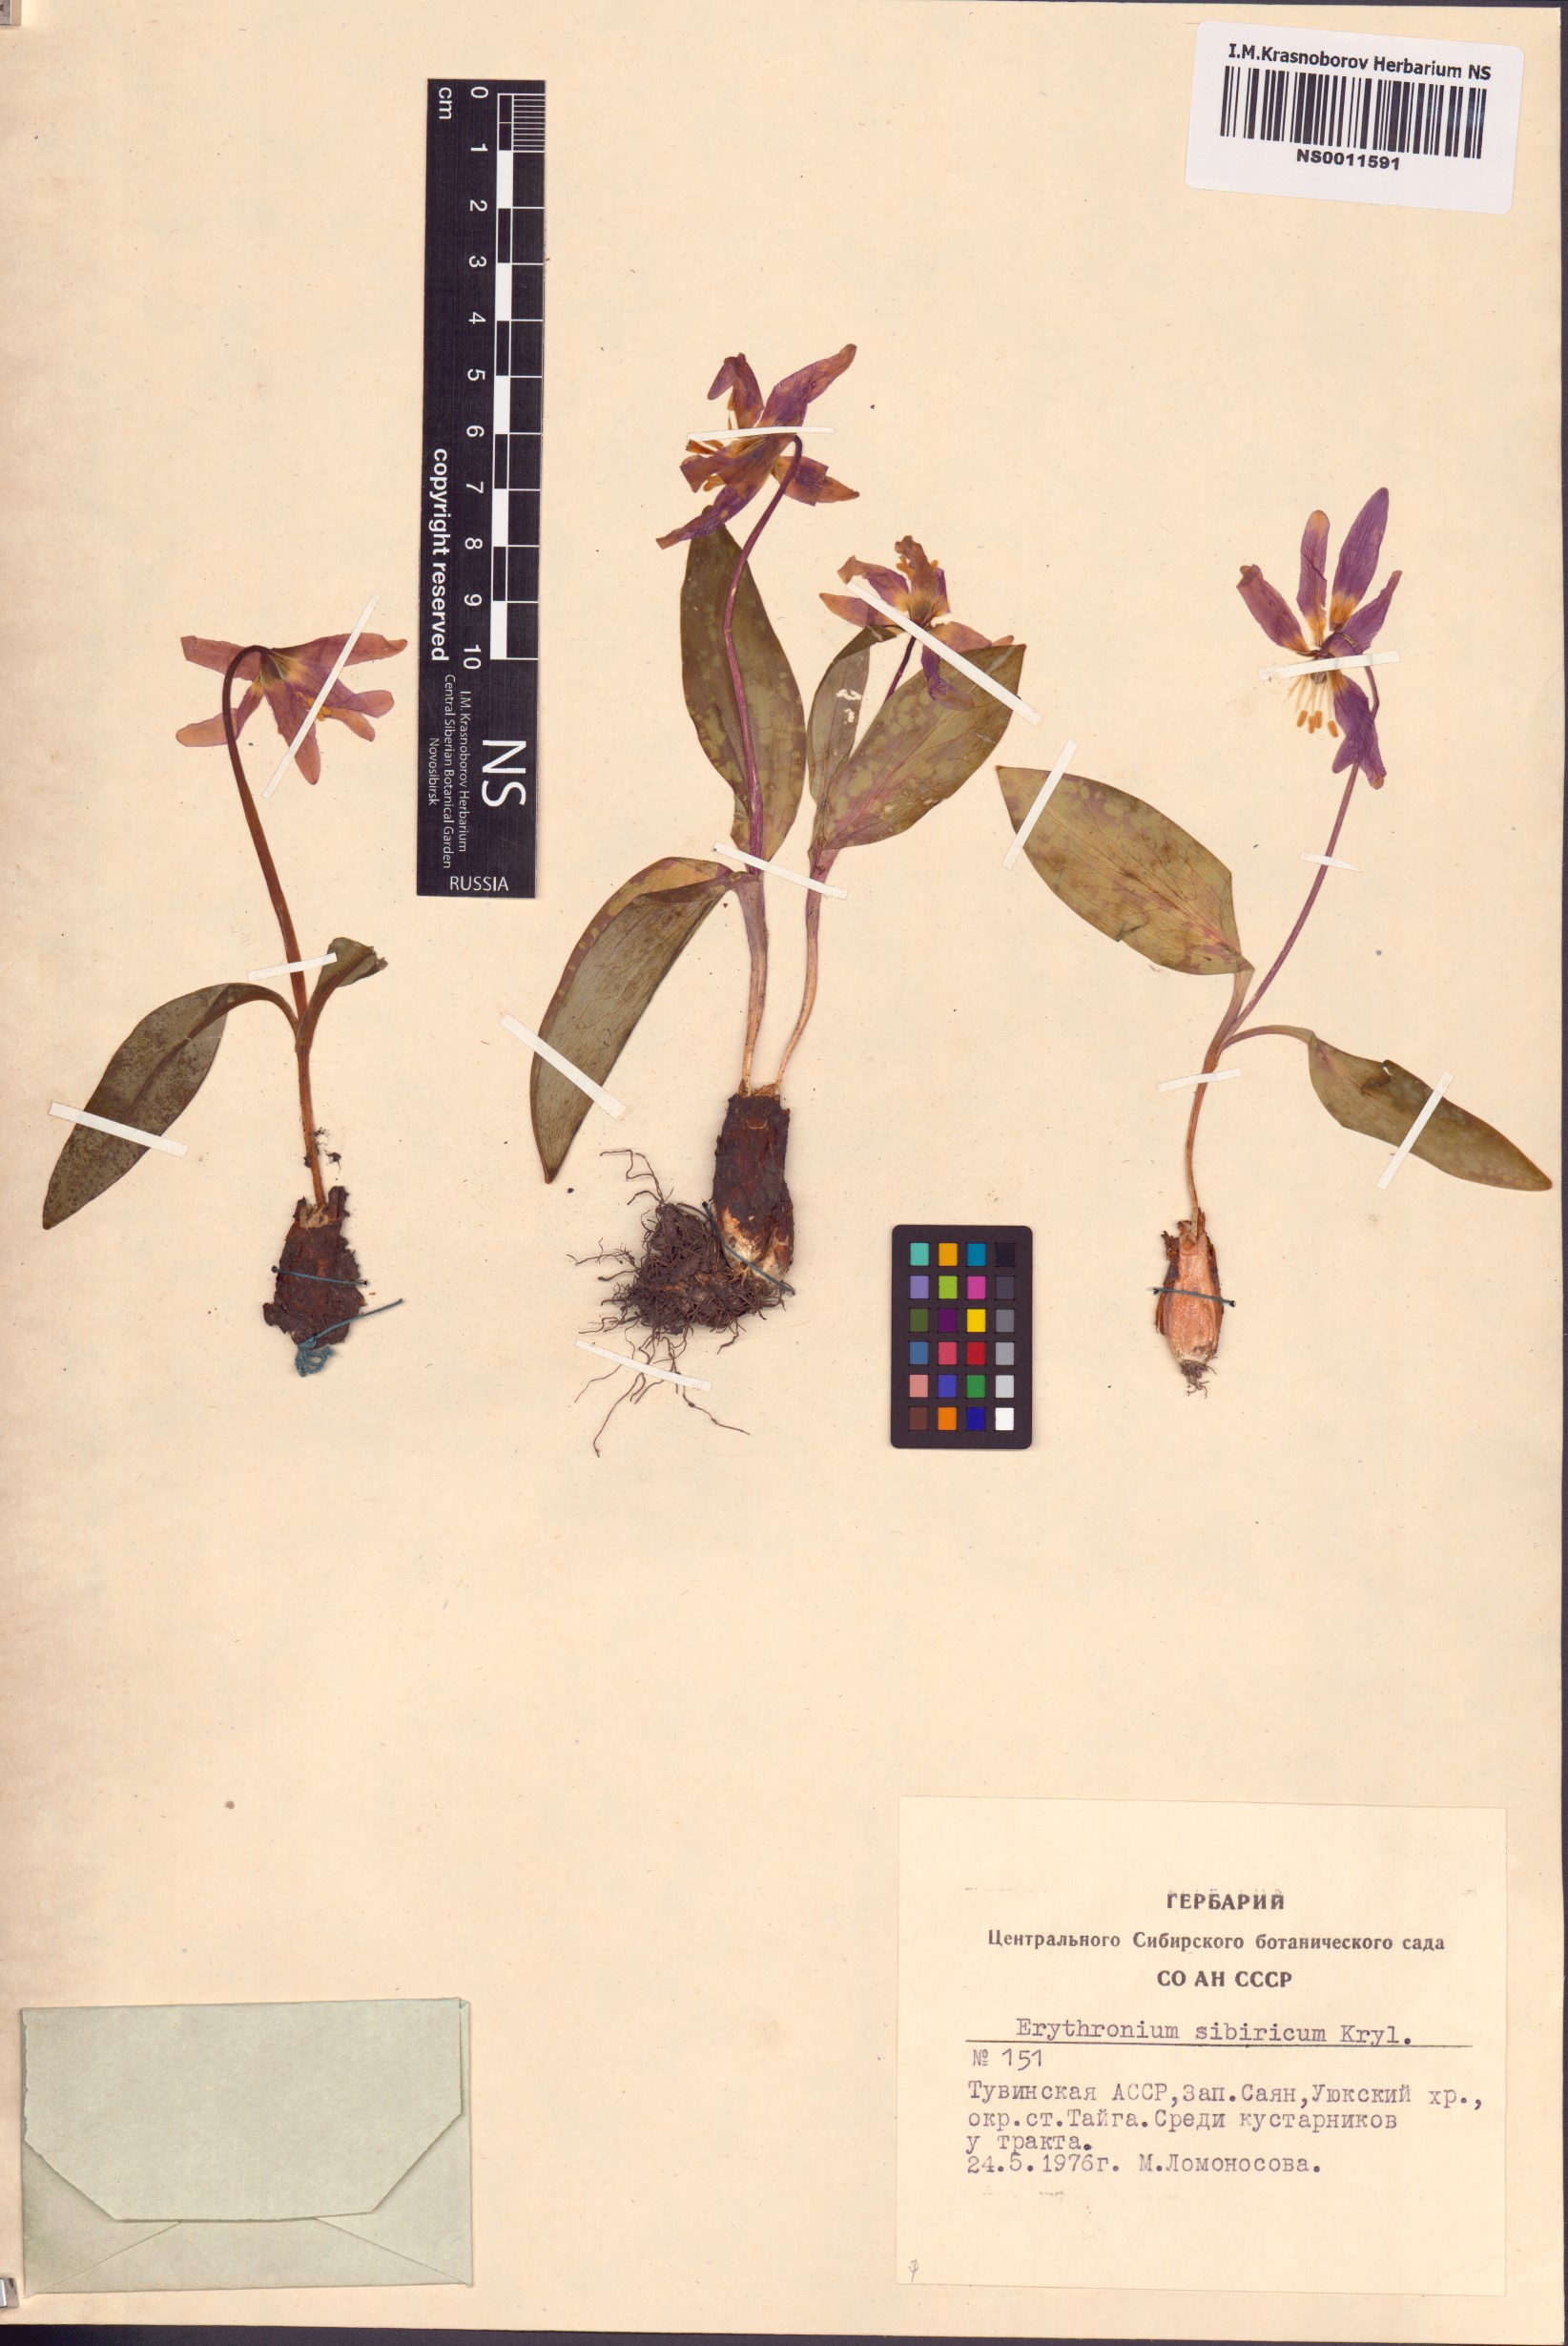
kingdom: Plantae
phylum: Tracheophyta
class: Liliopsida
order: Liliales
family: Liliaceae
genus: Erythronium
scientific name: Erythronium sibiricum
